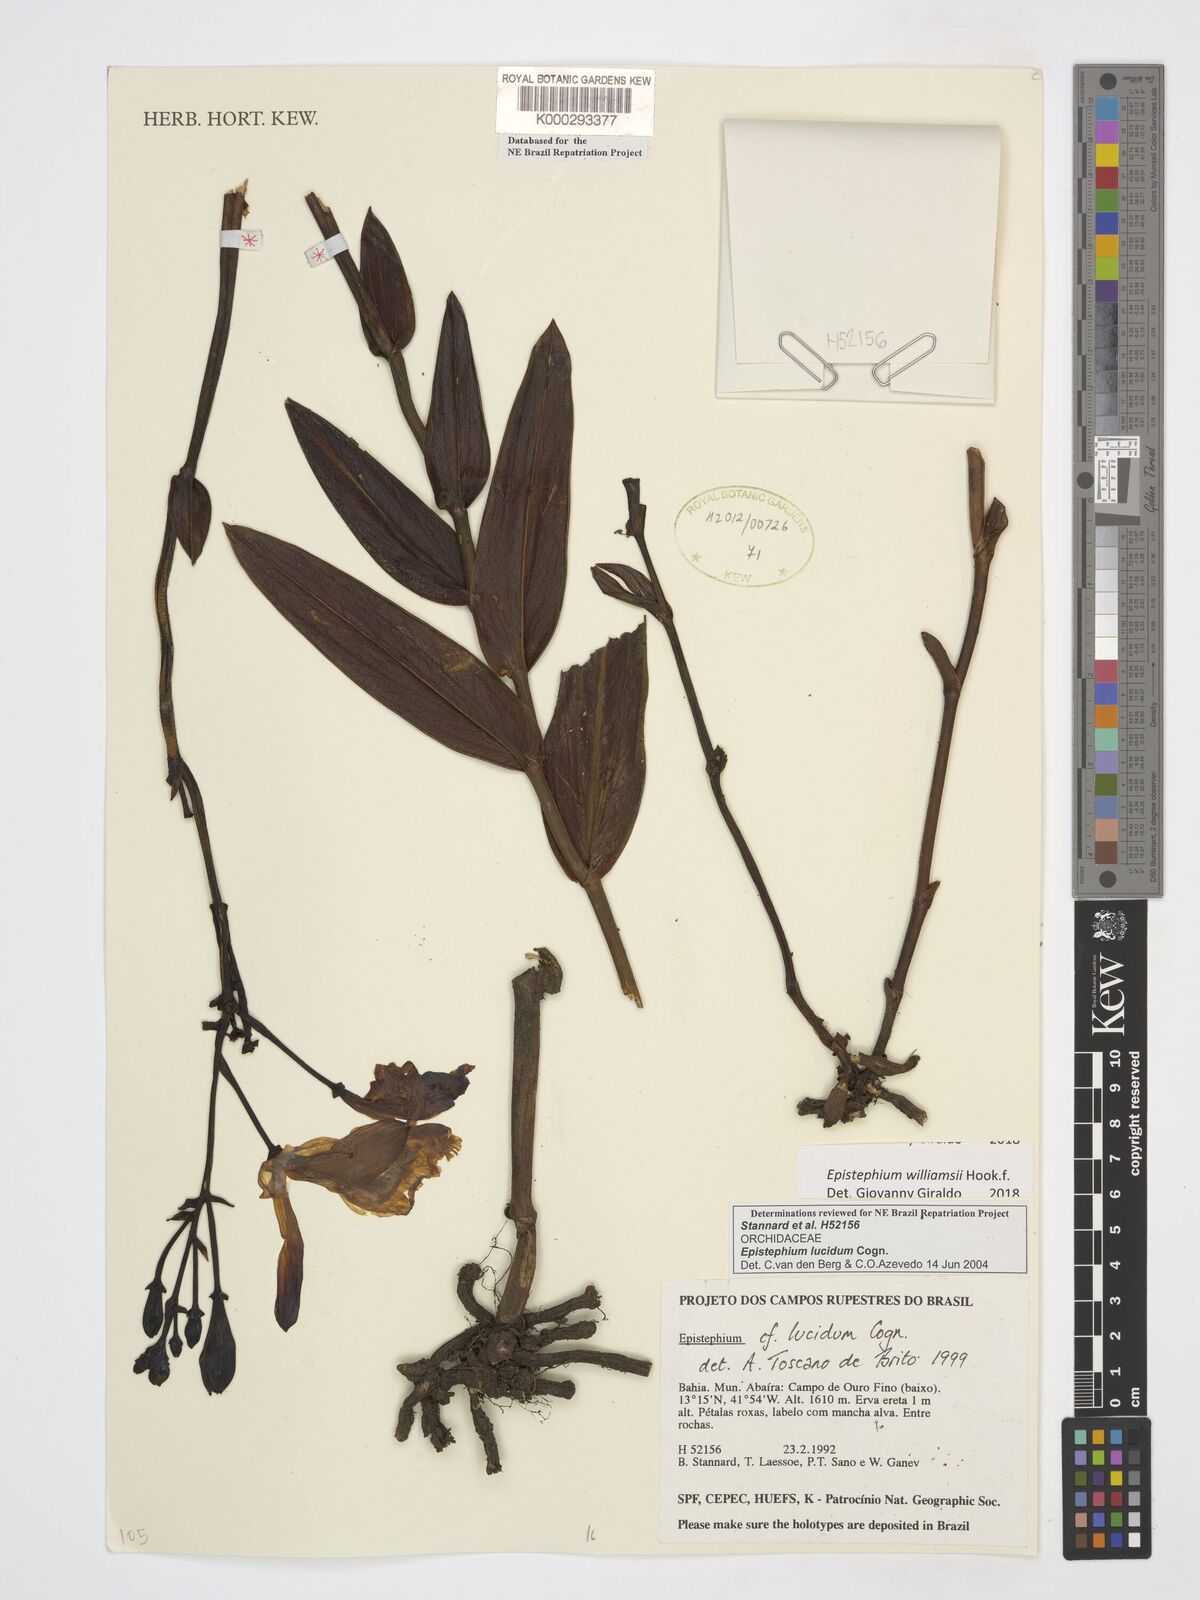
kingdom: Plantae
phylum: Tracheophyta
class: Liliopsida
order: Asparagales
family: Orchidaceae
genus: Epistephium
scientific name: Epistephium williamsii
